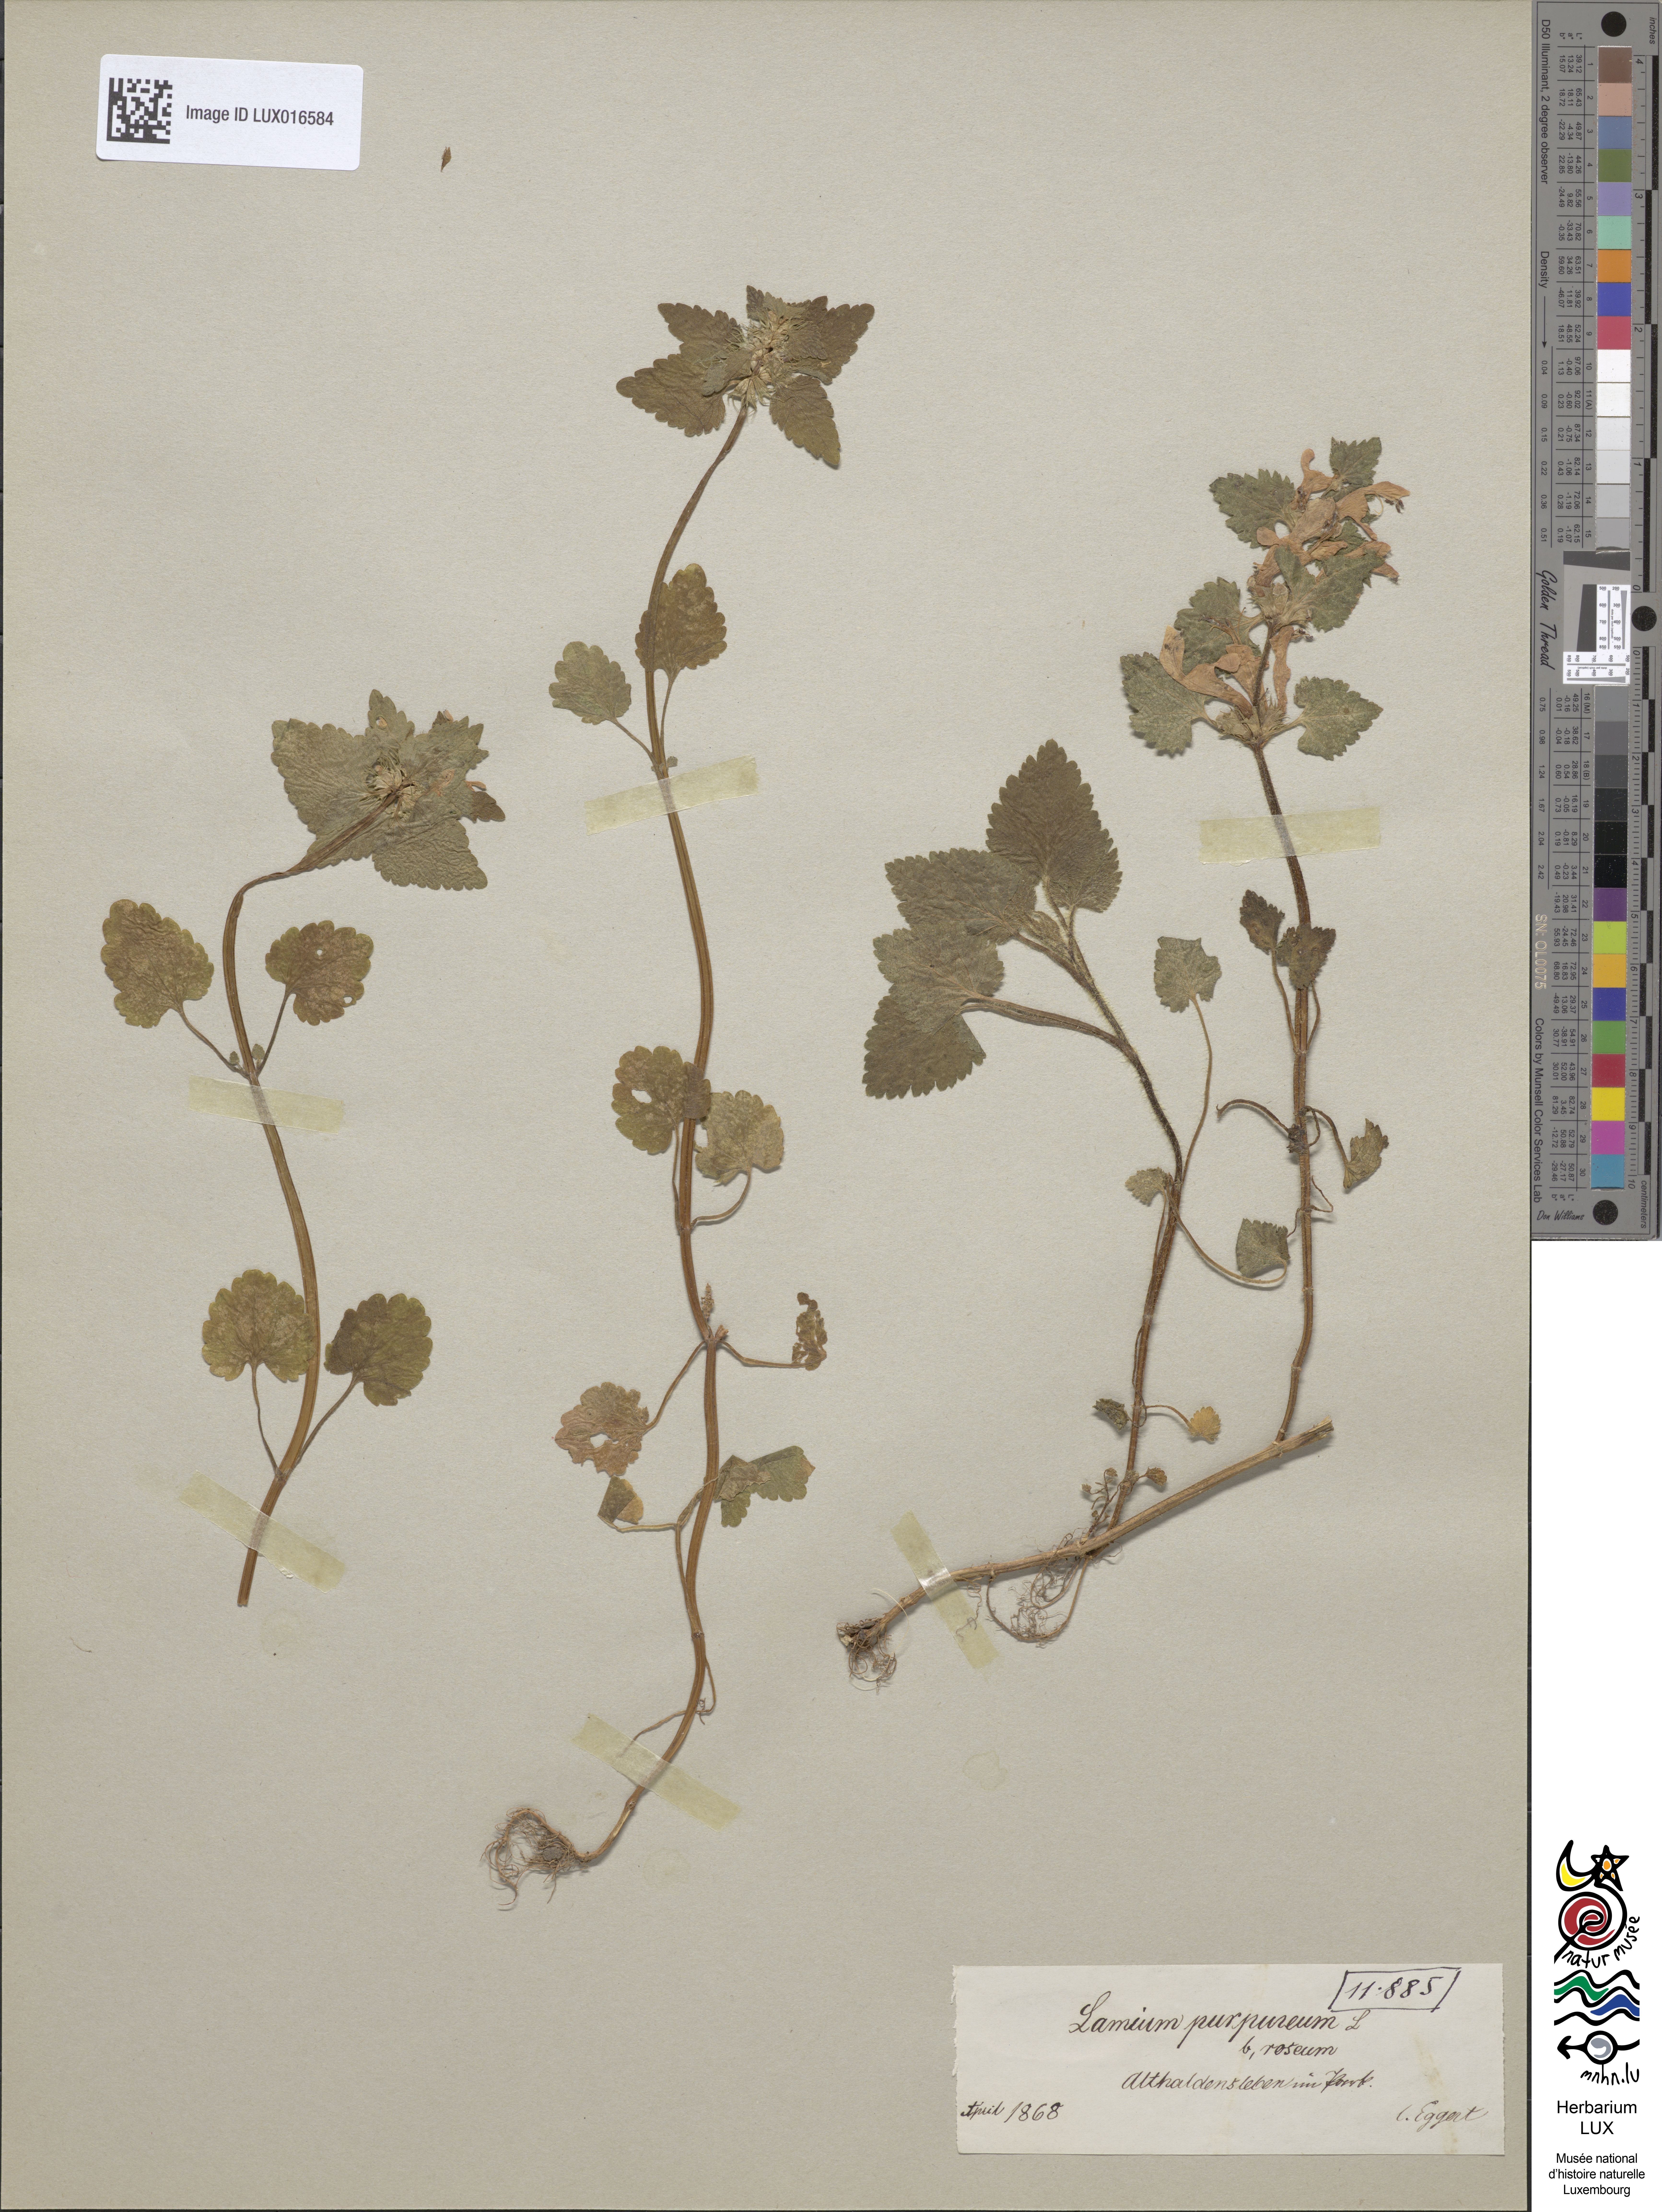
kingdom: Plantae
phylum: Tracheophyta
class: Magnoliopsida
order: Lamiales
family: Lamiaceae
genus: Lamium
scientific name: Lamium purpureum
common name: Red dead-nettle
